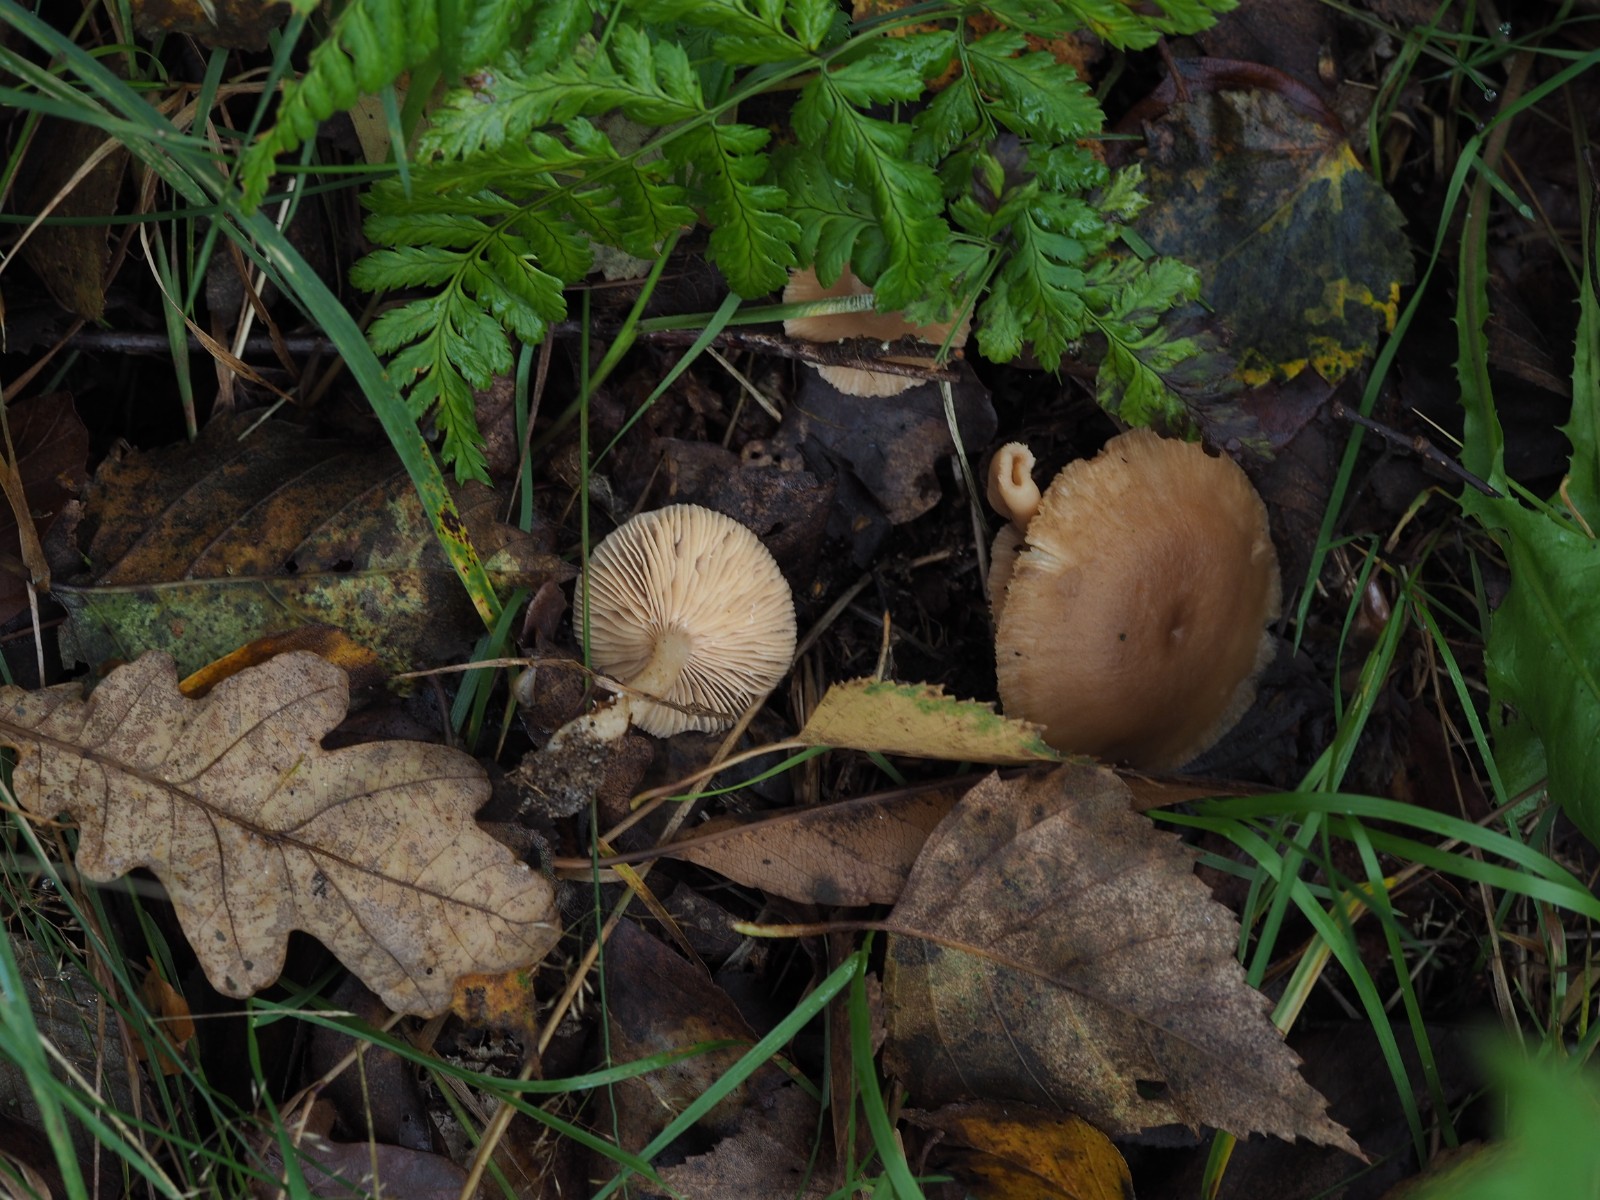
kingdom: Fungi
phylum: Basidiomycota
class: Agaricomycetes
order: Russulales
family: Russulaceae
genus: Lactarius
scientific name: Lactarius glyciosmus
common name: kokos-mælkehat
